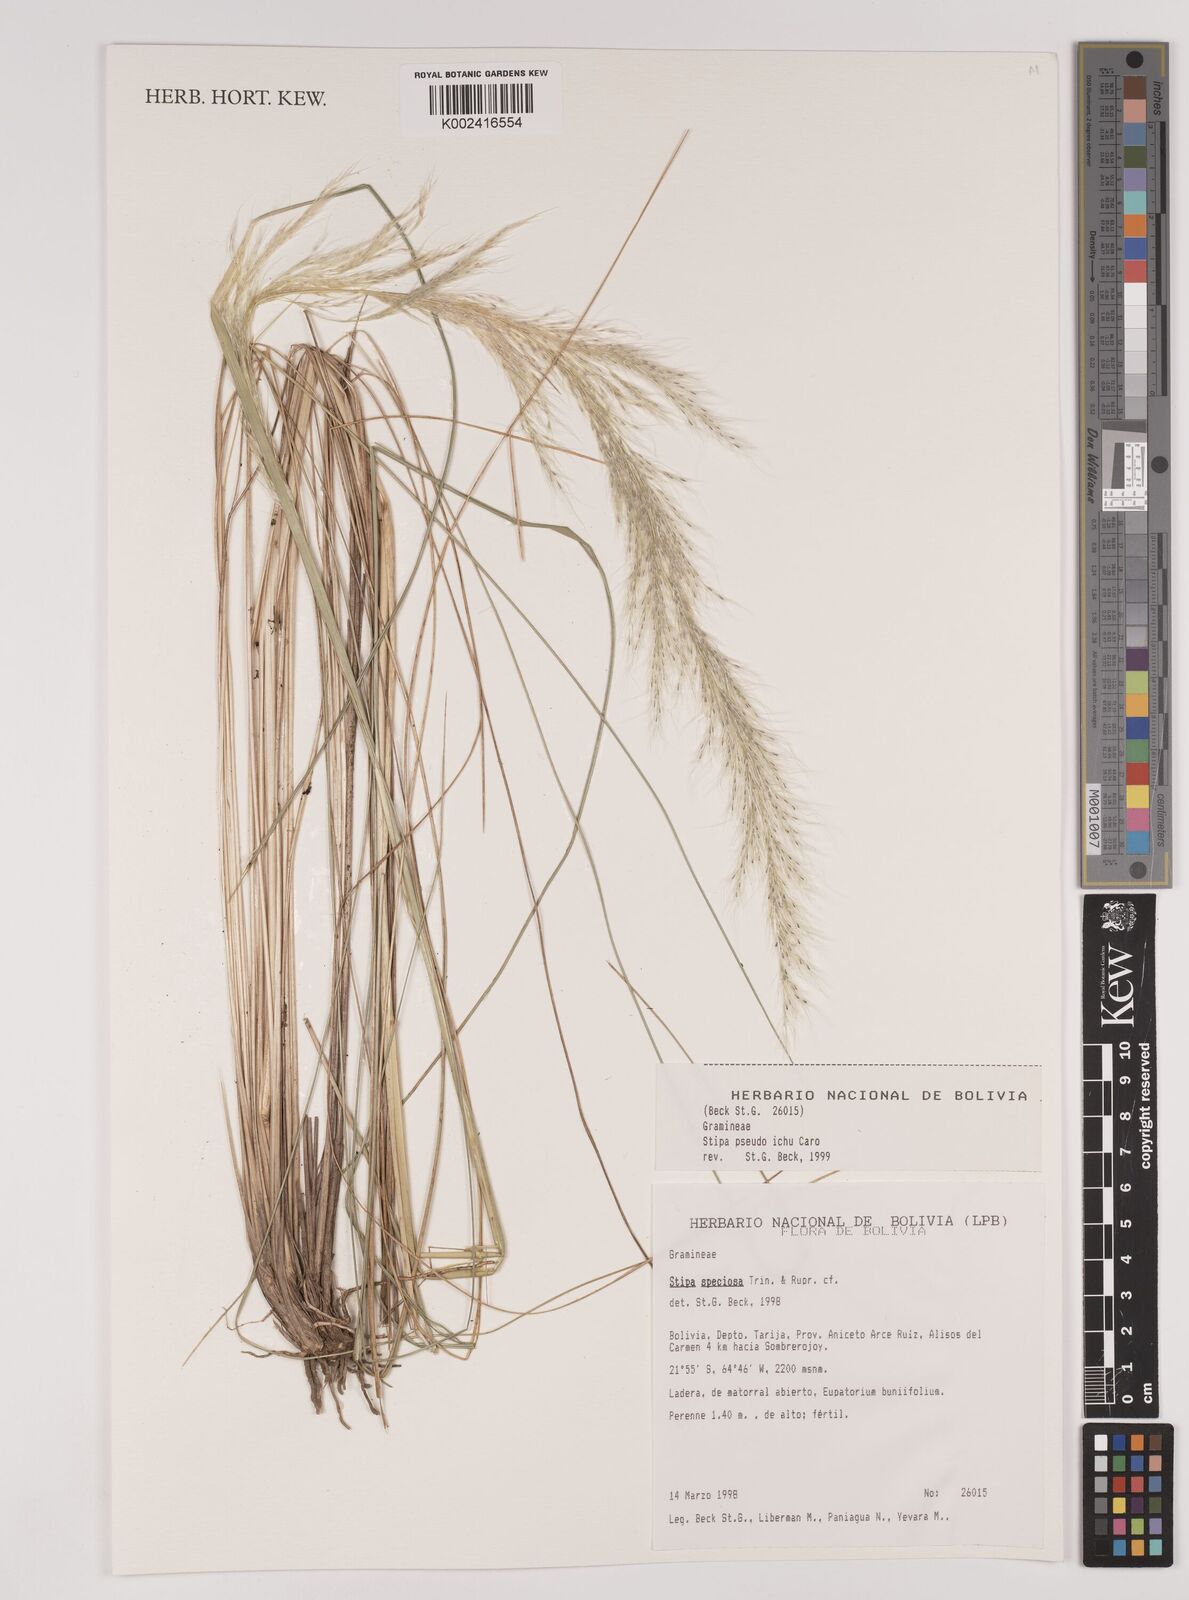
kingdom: Plantae
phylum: Tracheophyta
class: Liliopsida
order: Poales
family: Poaceae
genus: Jarava
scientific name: Jarava ichu
